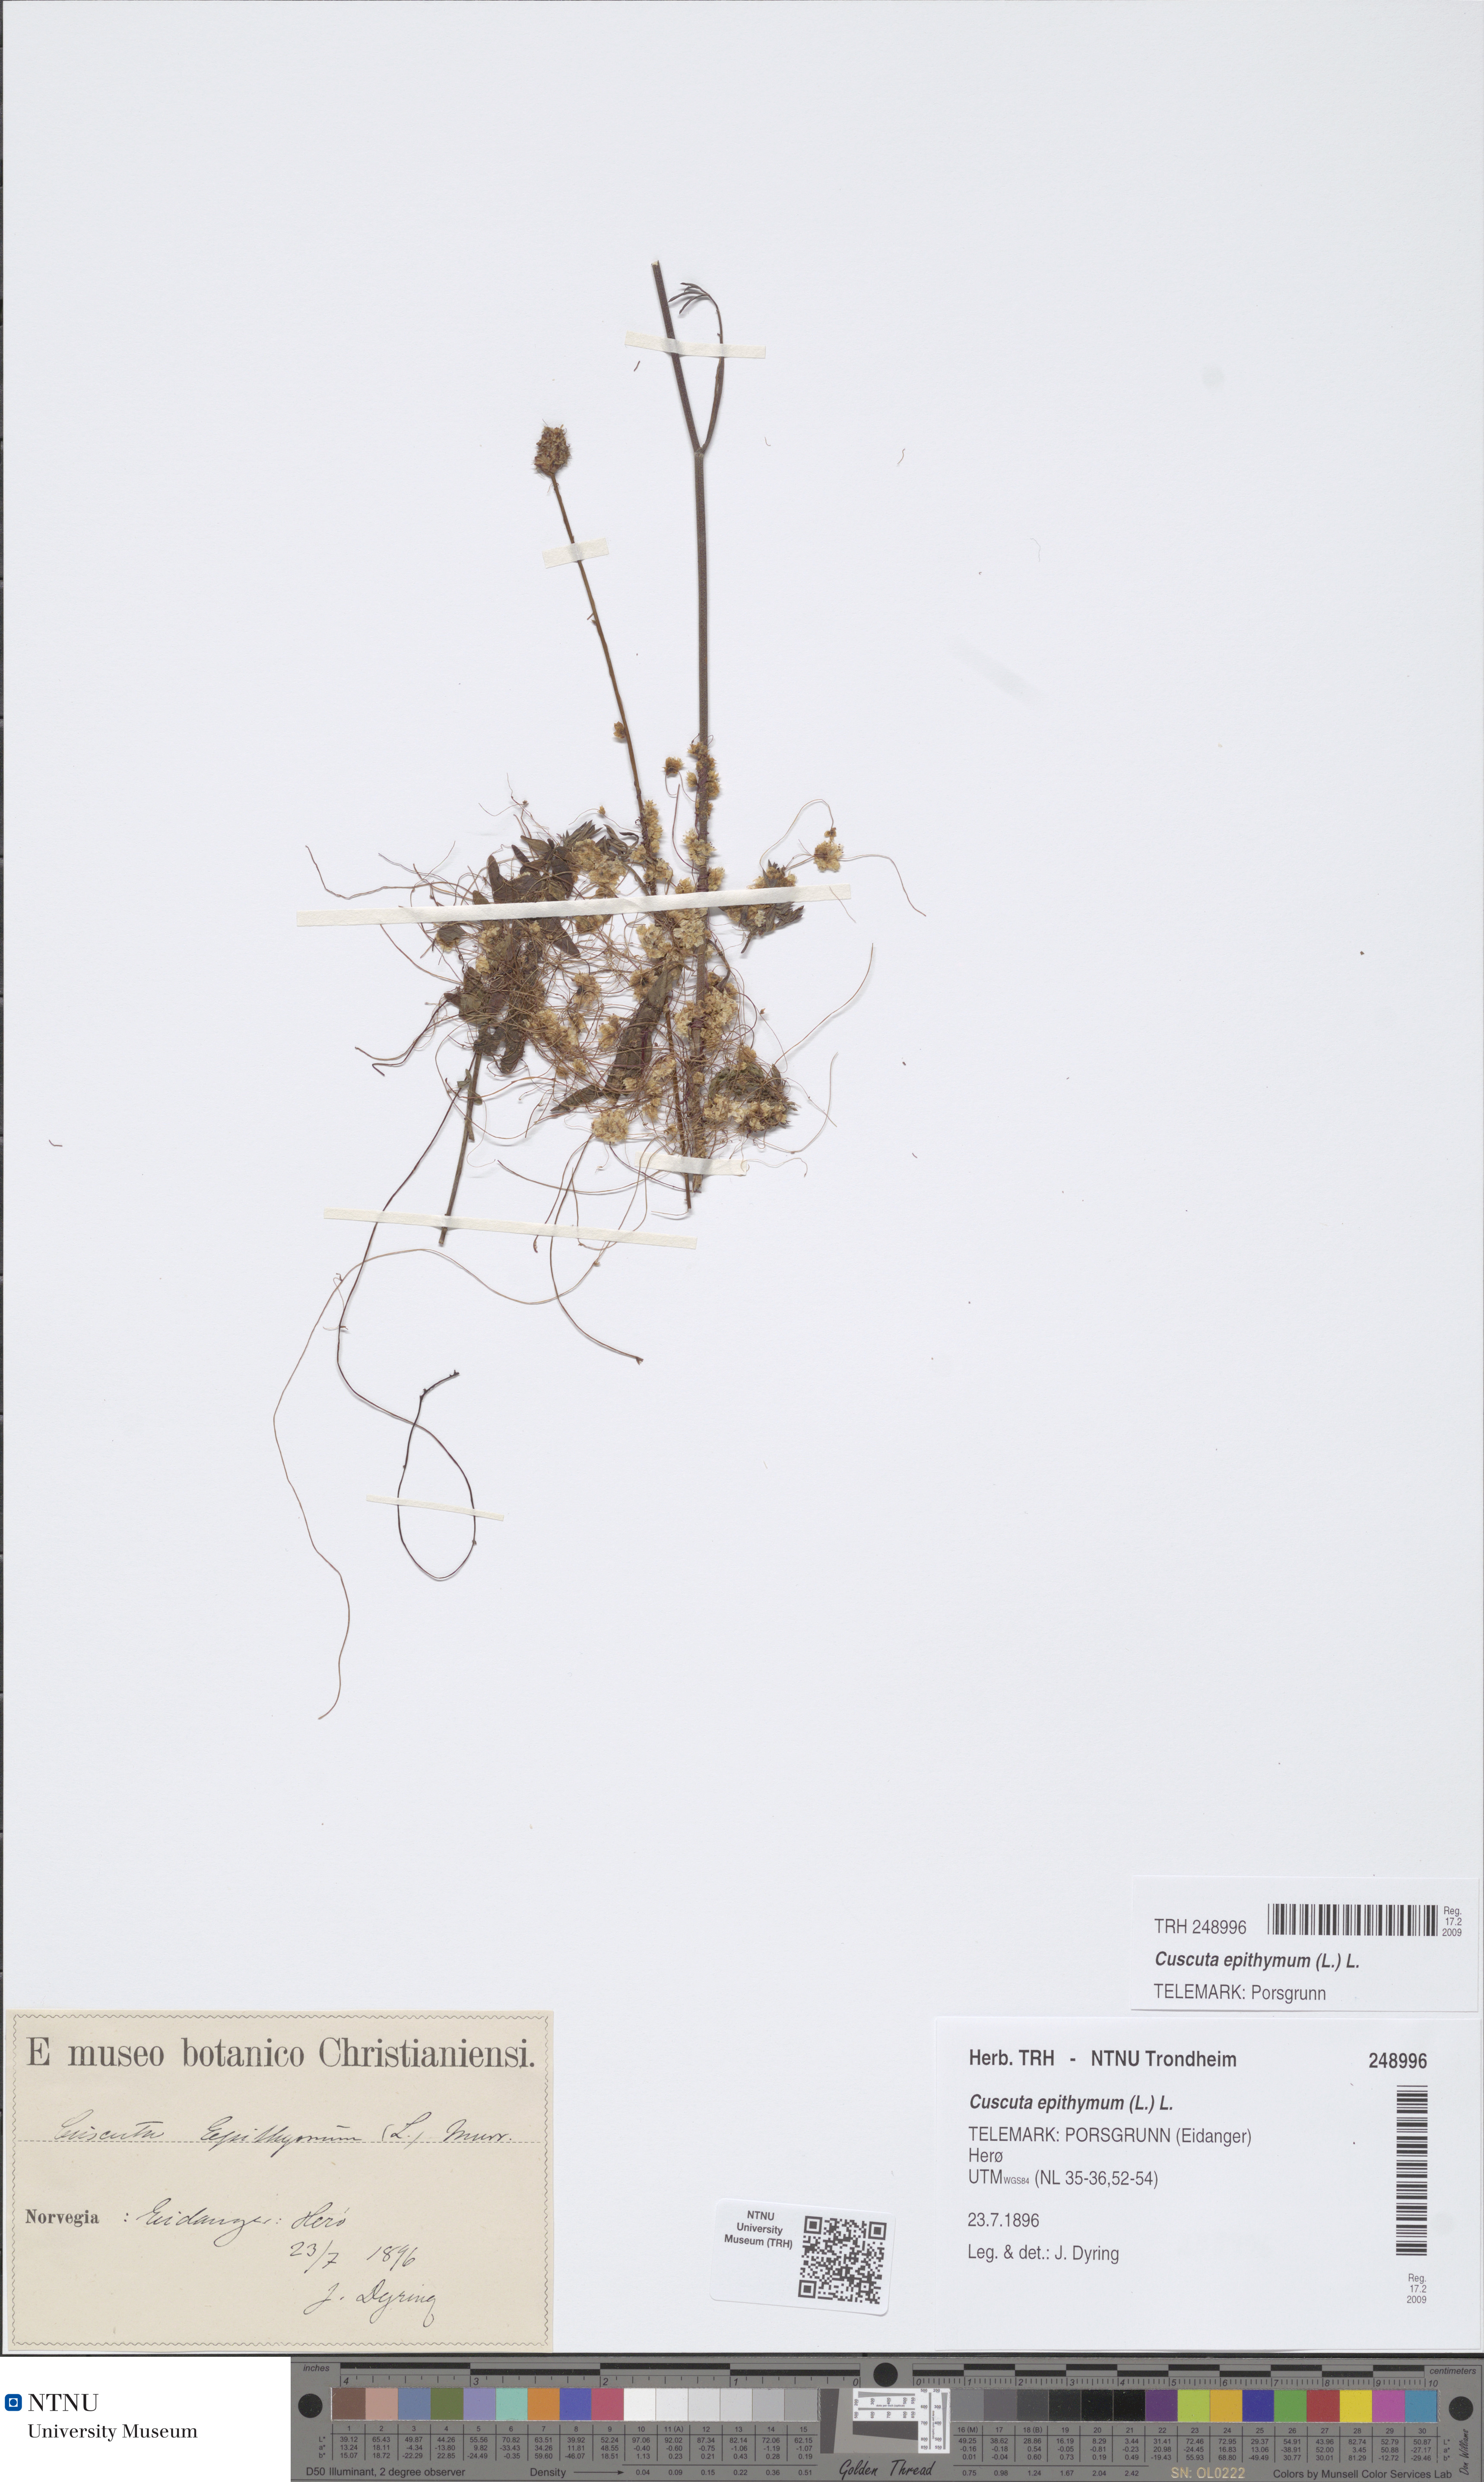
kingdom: Plantae
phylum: Tracheophyta
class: Magnoliopsida
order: Solanales
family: Convolvulaceae
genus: Cuscuta
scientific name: Cuscuta epithymum
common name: Clover dodder
